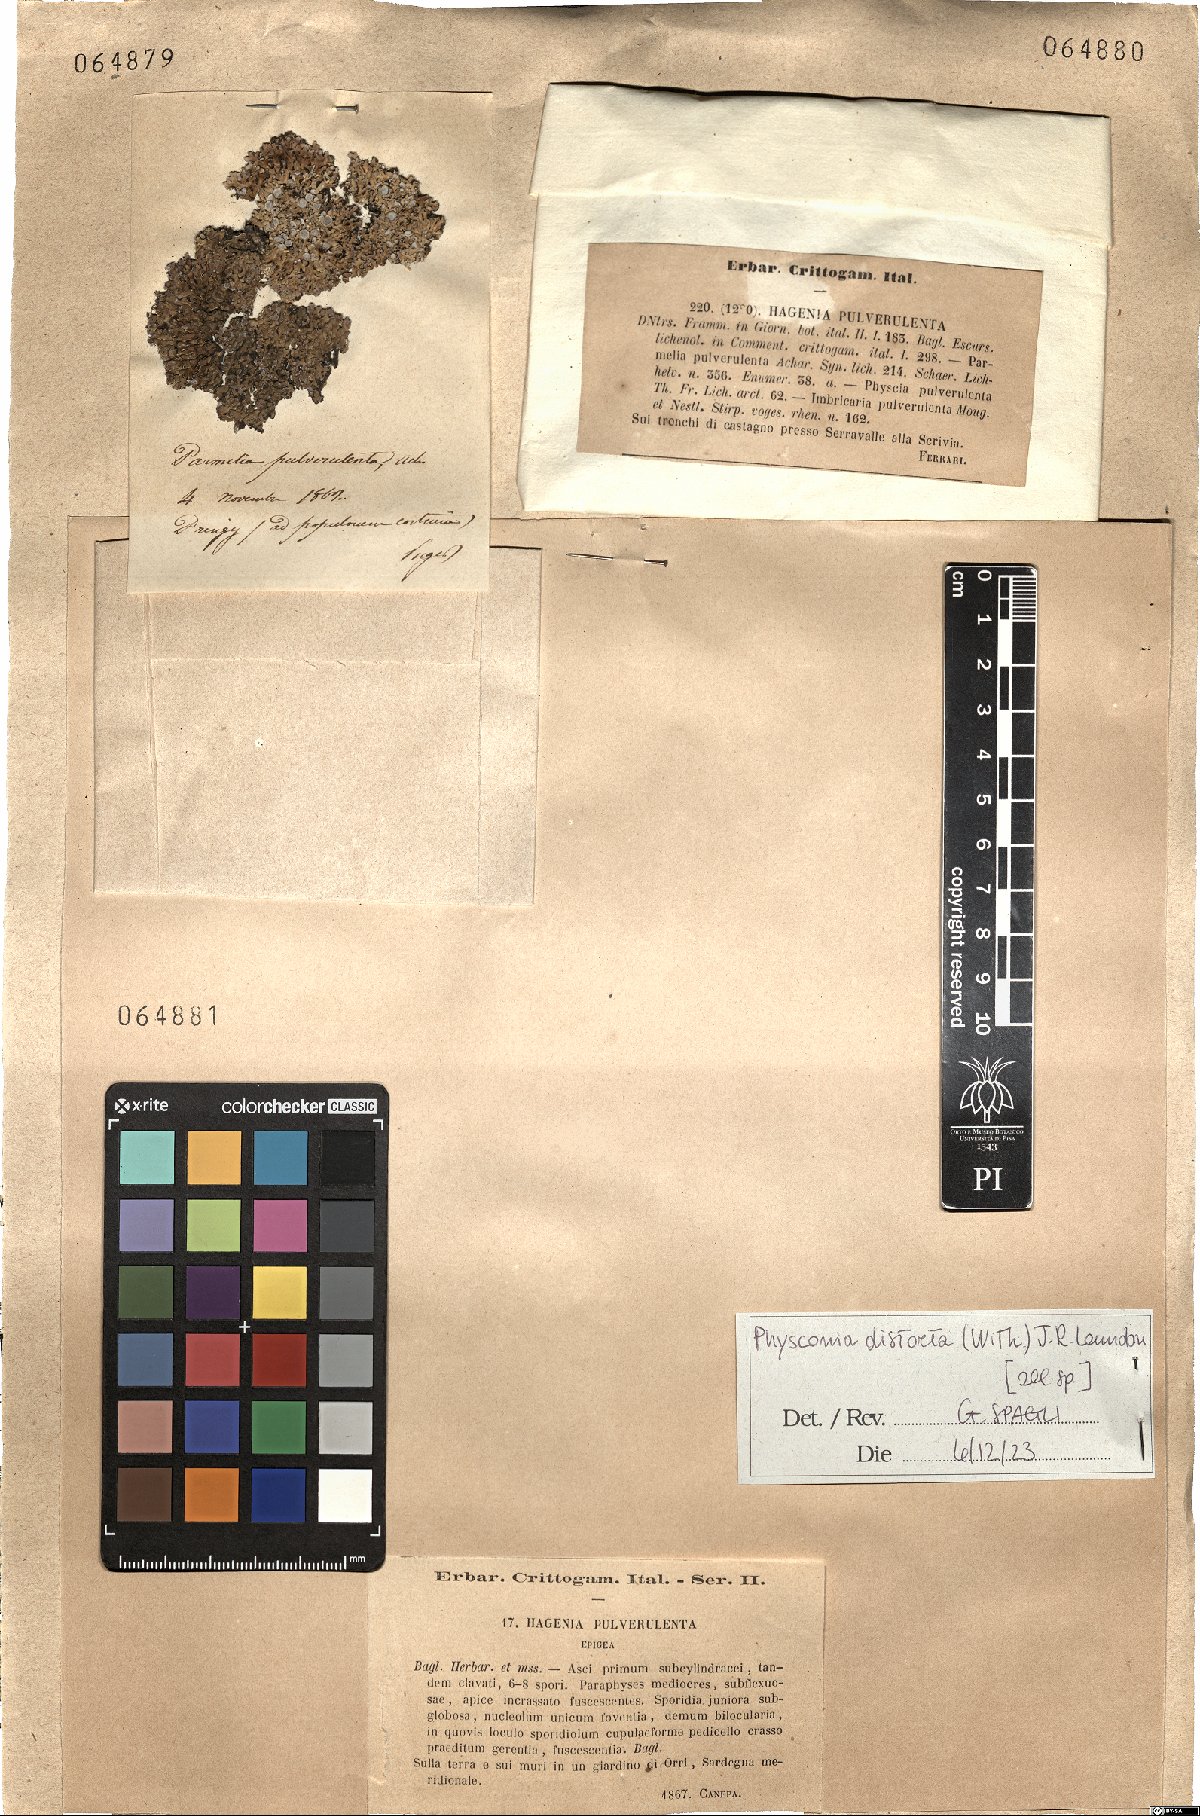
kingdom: Fungi
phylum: Ascomycota
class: Lecanoromycetes
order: Caliciales
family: Physciaceae
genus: Physconia
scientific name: Physconia distorta
